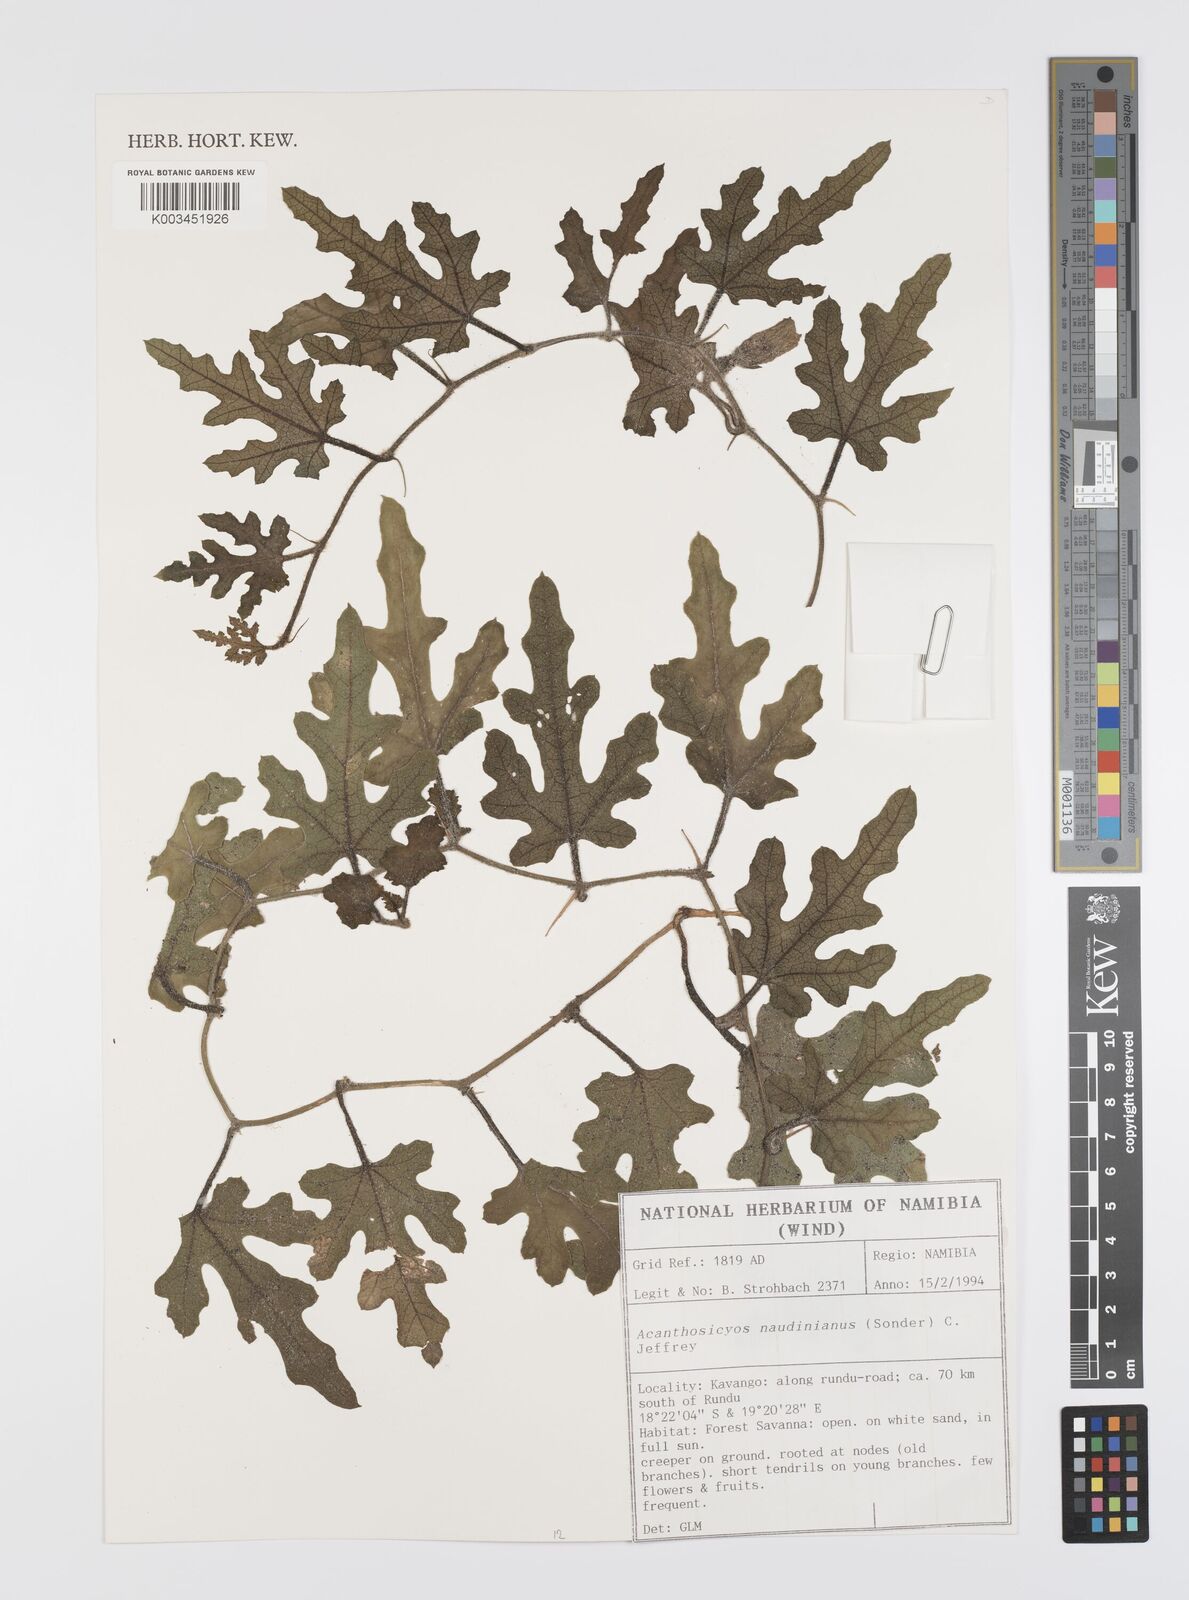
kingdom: Plantae
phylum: Tracheophyta
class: Magnoliopsida
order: Cucurbitales
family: Cucurbitaceae
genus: Citrullus
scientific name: Citrullus naudinianus
